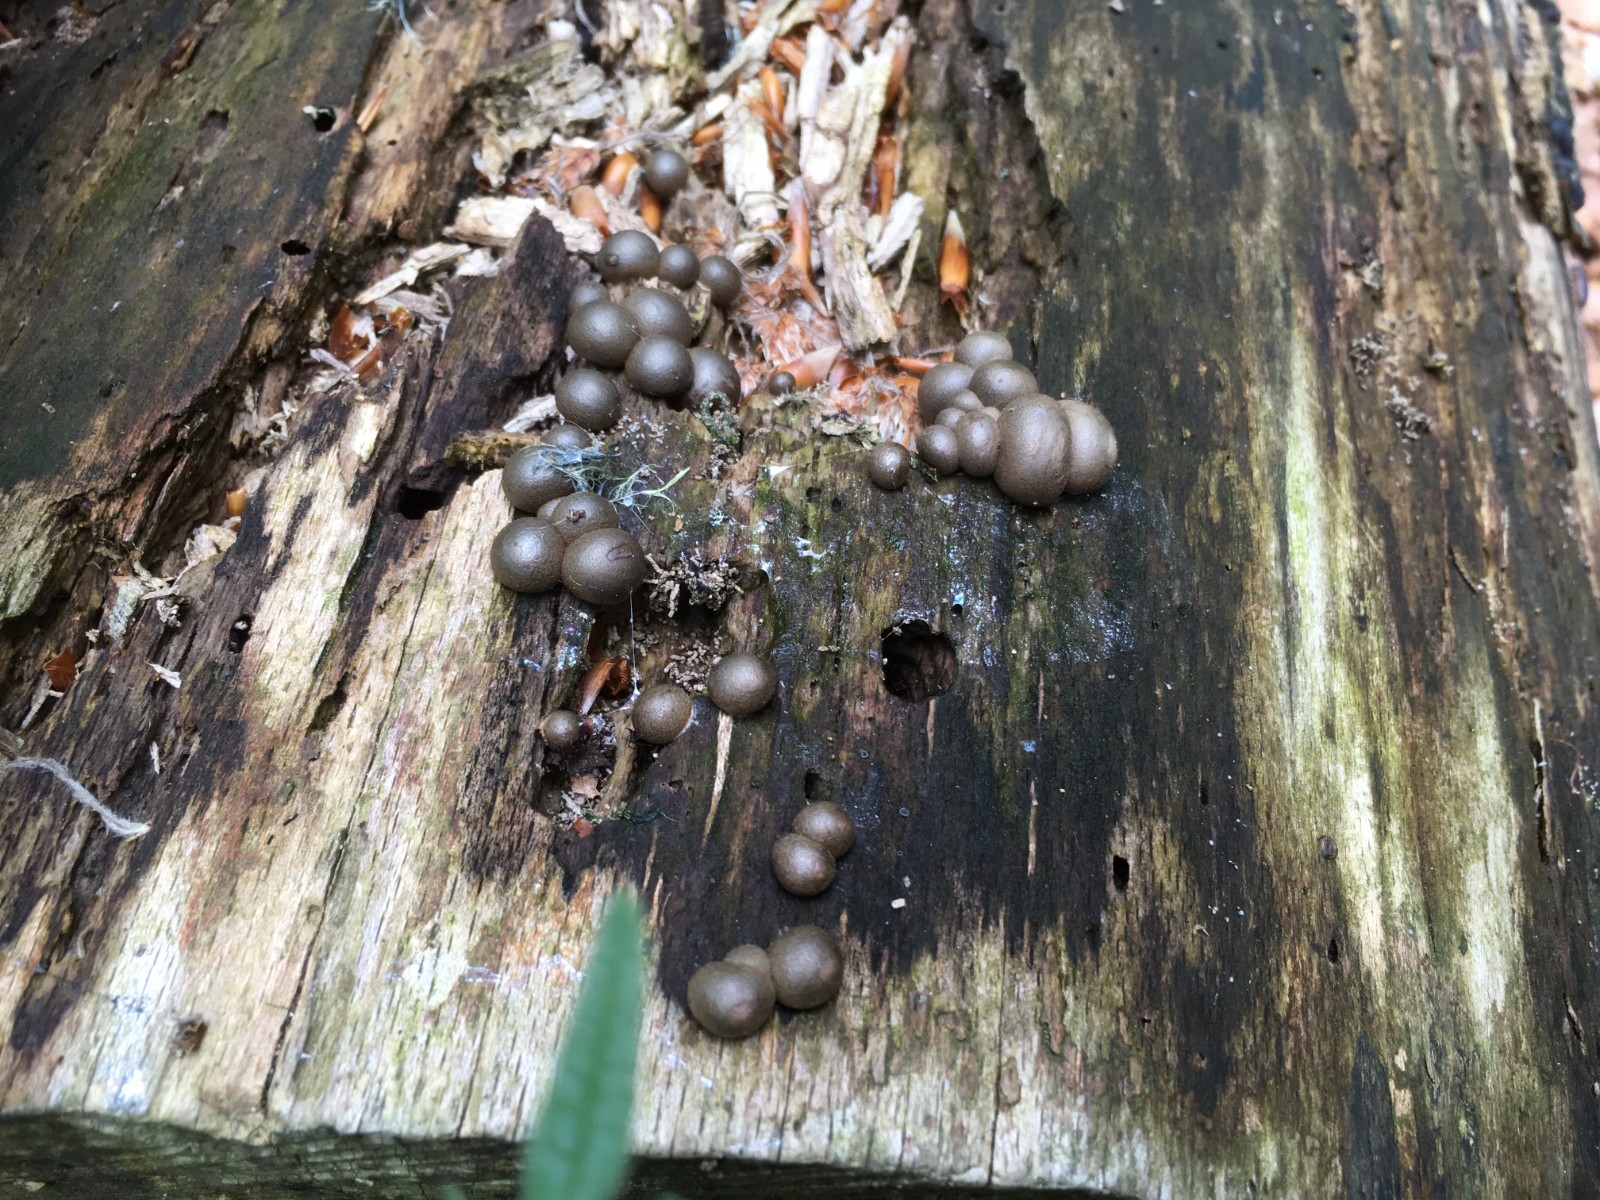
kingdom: Protozoa
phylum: Mycetozoa
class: Myxomycetes
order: Cribrariales
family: Tubiferaceae
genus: Lycogala
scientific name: Lycogala epidendrum
